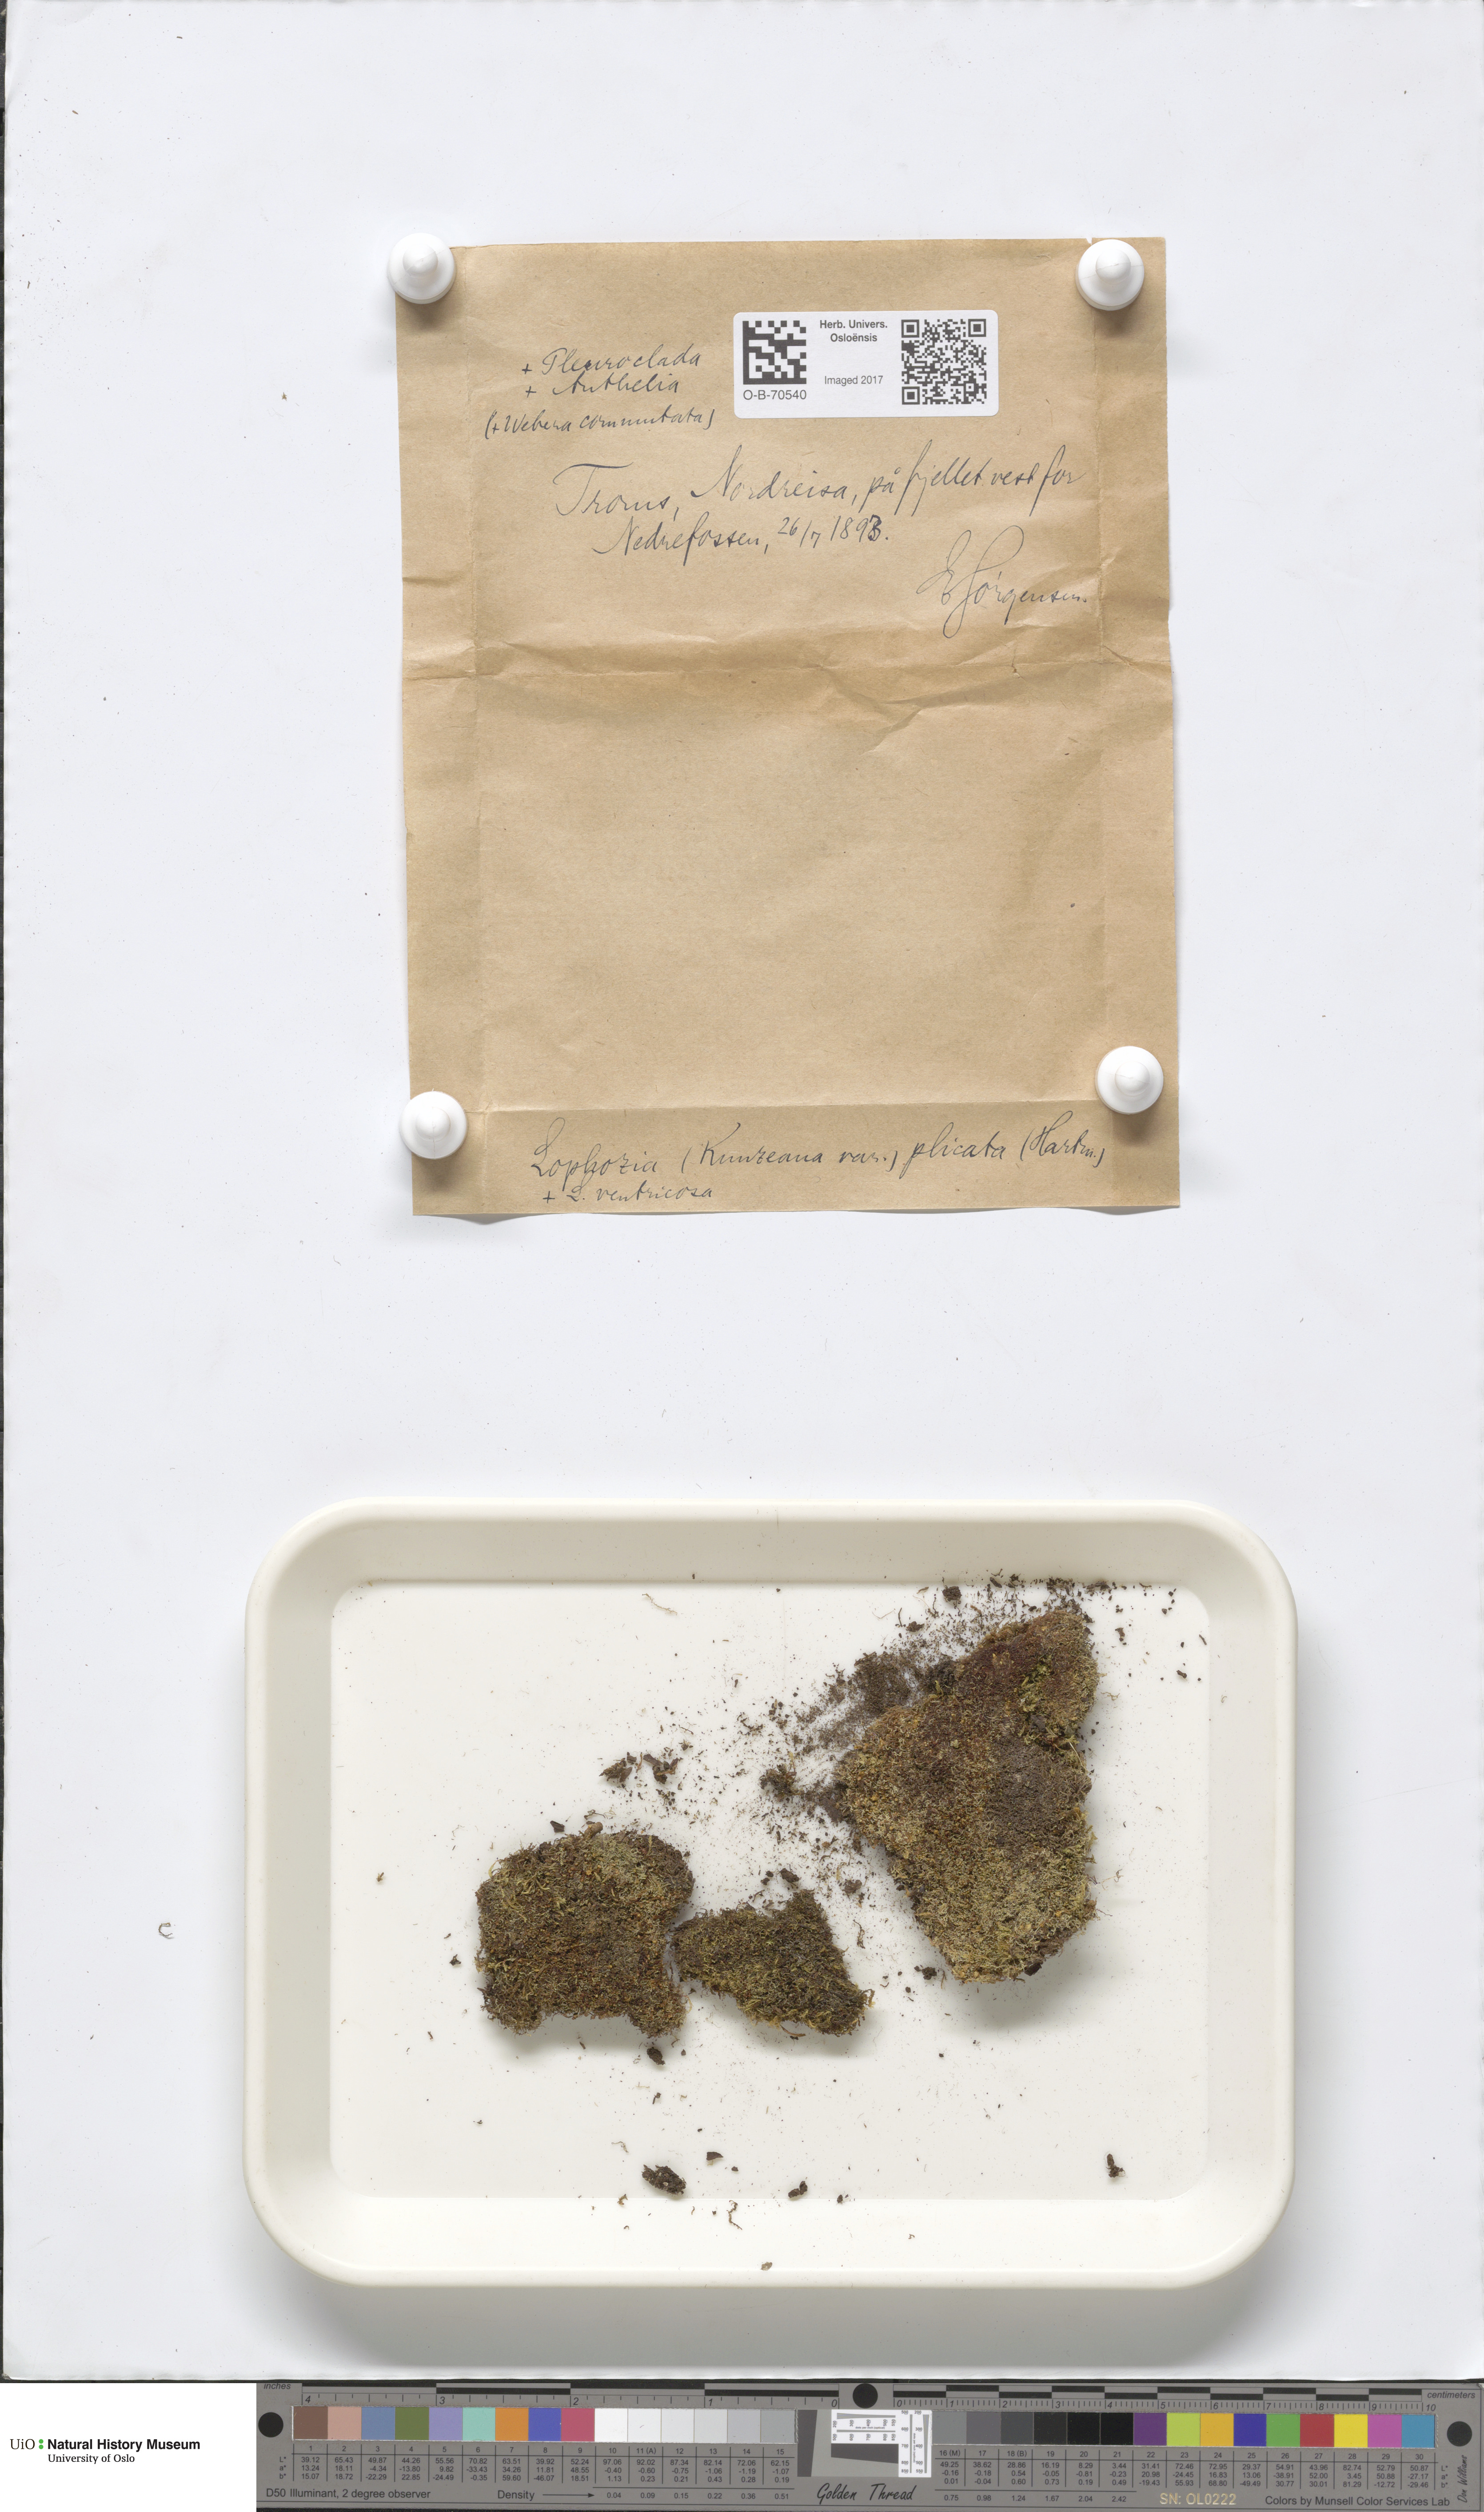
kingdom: Plantae
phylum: Marchantiophyta
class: Jungermanniopsida
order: Jungermanniales
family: Anastrophyllaceae
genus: Schljakovia
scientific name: Schljakovia kunzeana
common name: Kunze's pawwort
